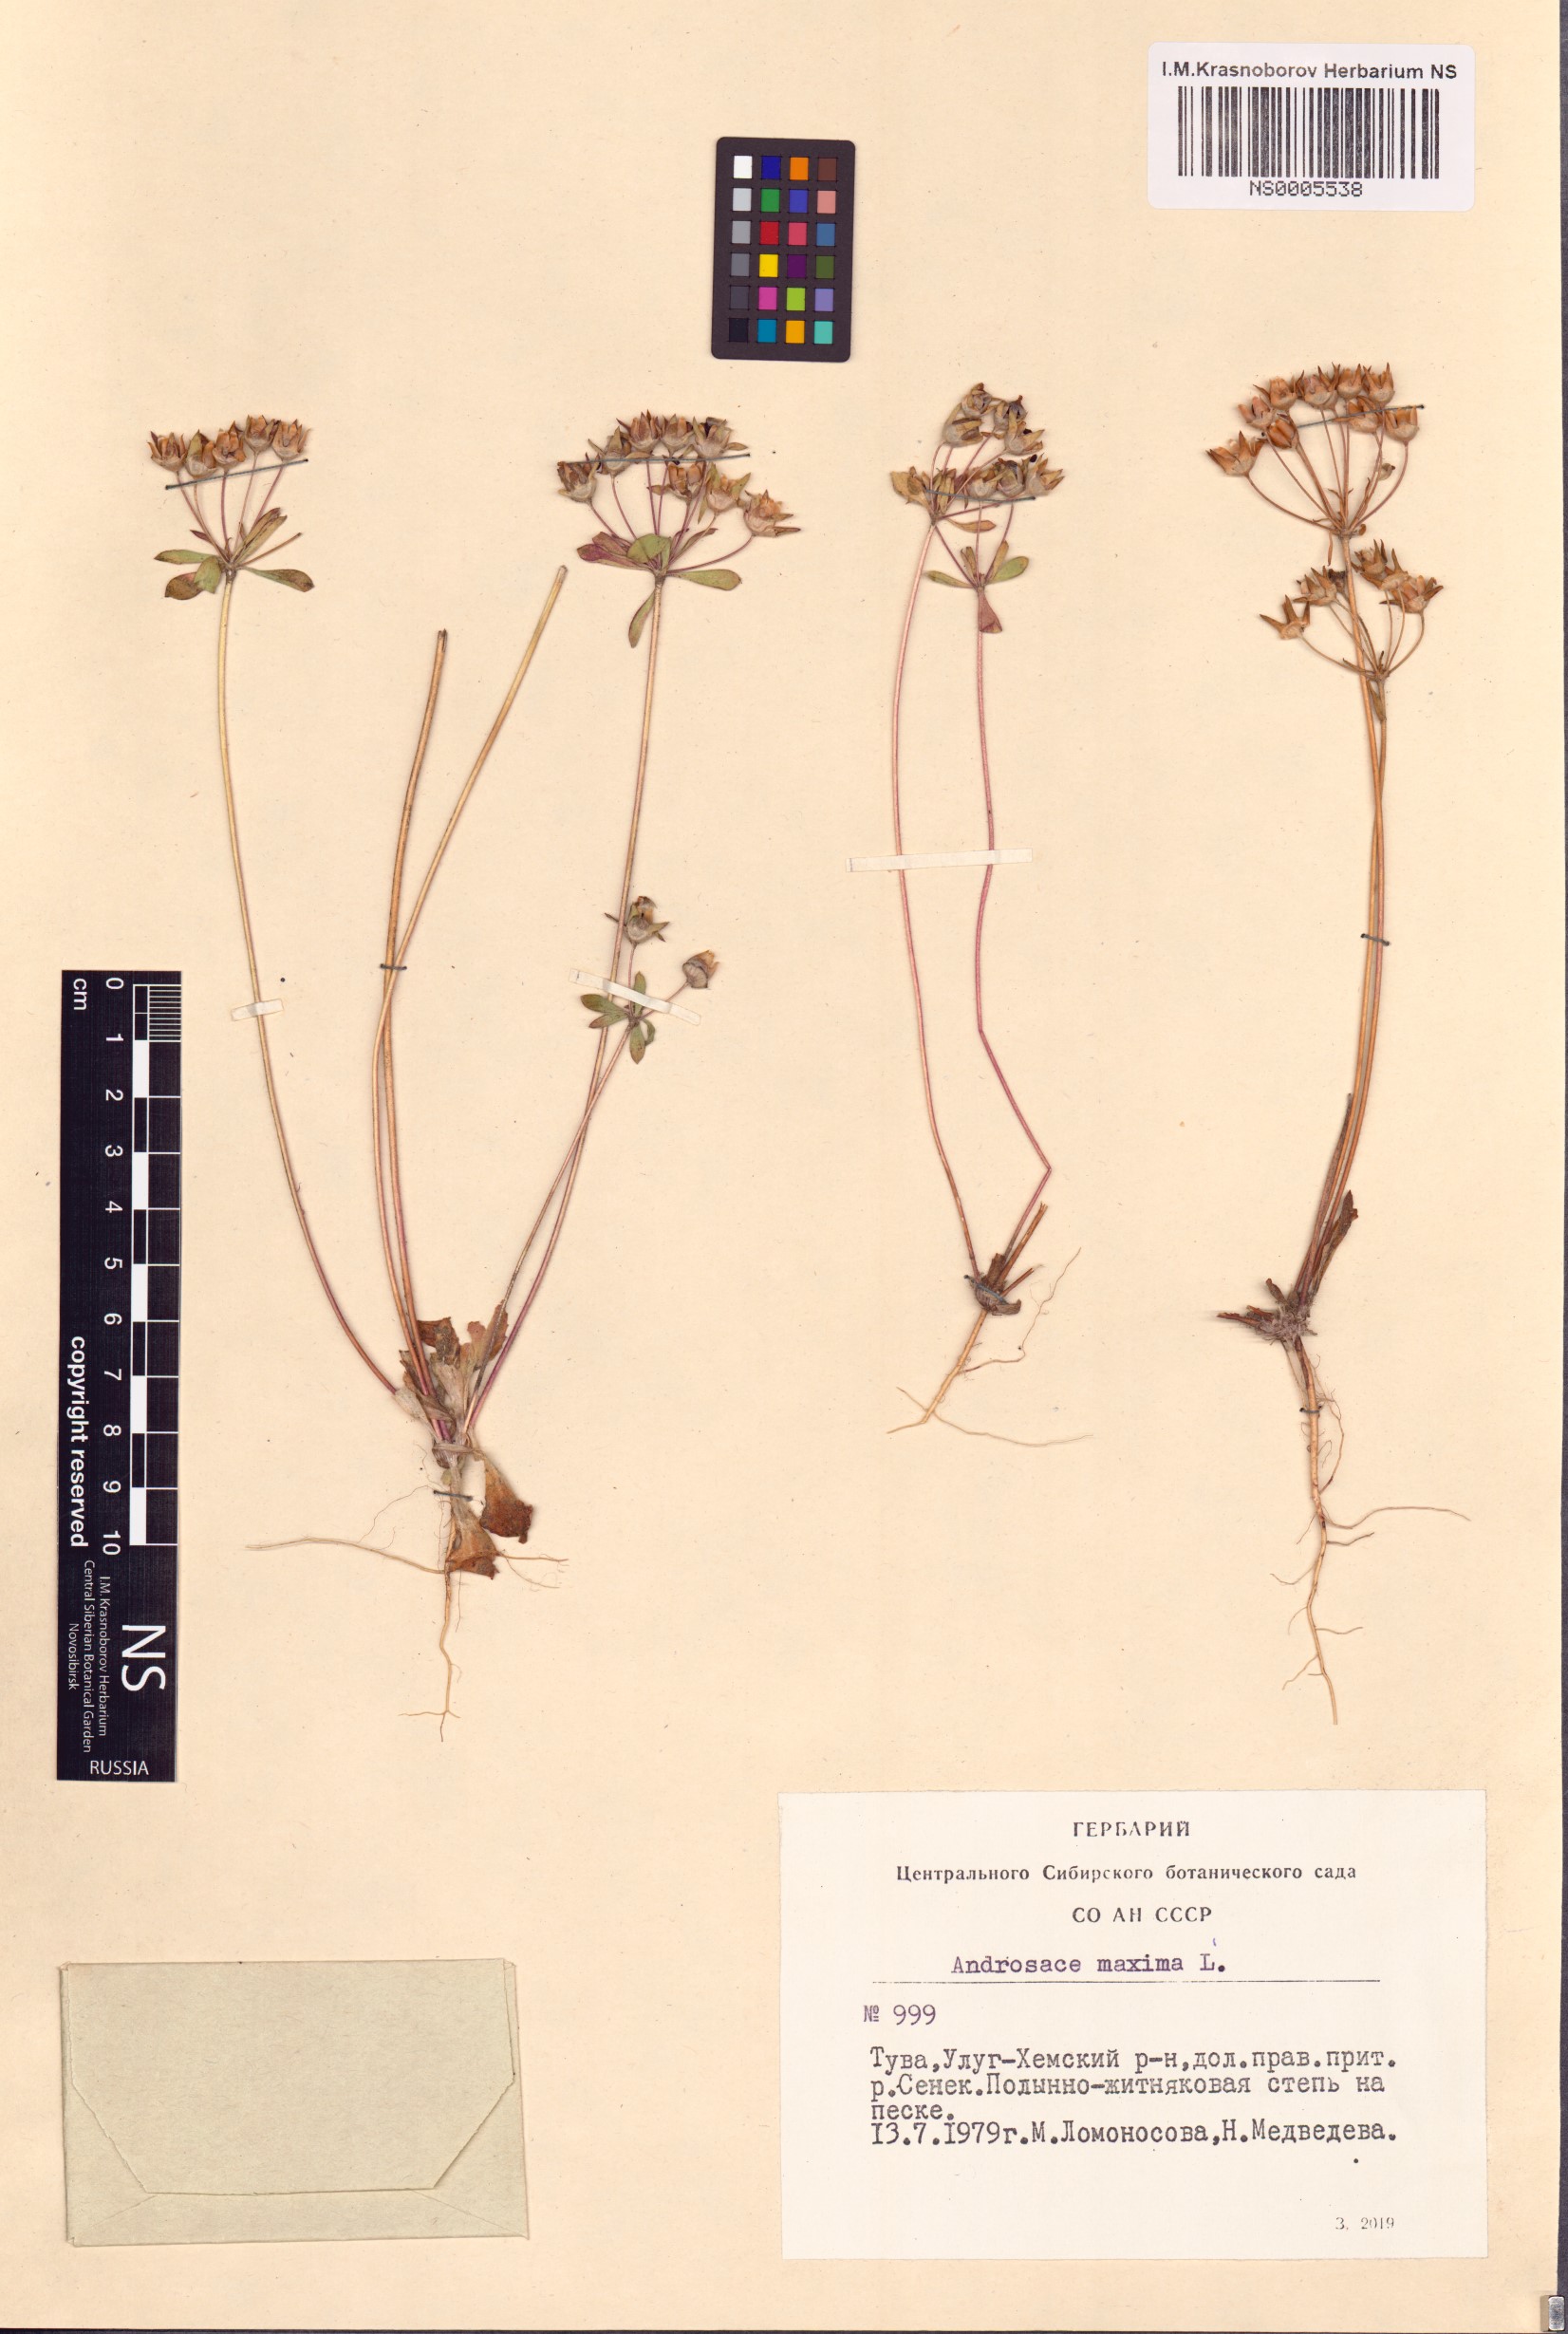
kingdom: Plantae
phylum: Tracheophyta
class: Magnoliopsida
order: Ericales
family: Primulaceae
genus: Androsace
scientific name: Androsace maxima
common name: Annual androsace
